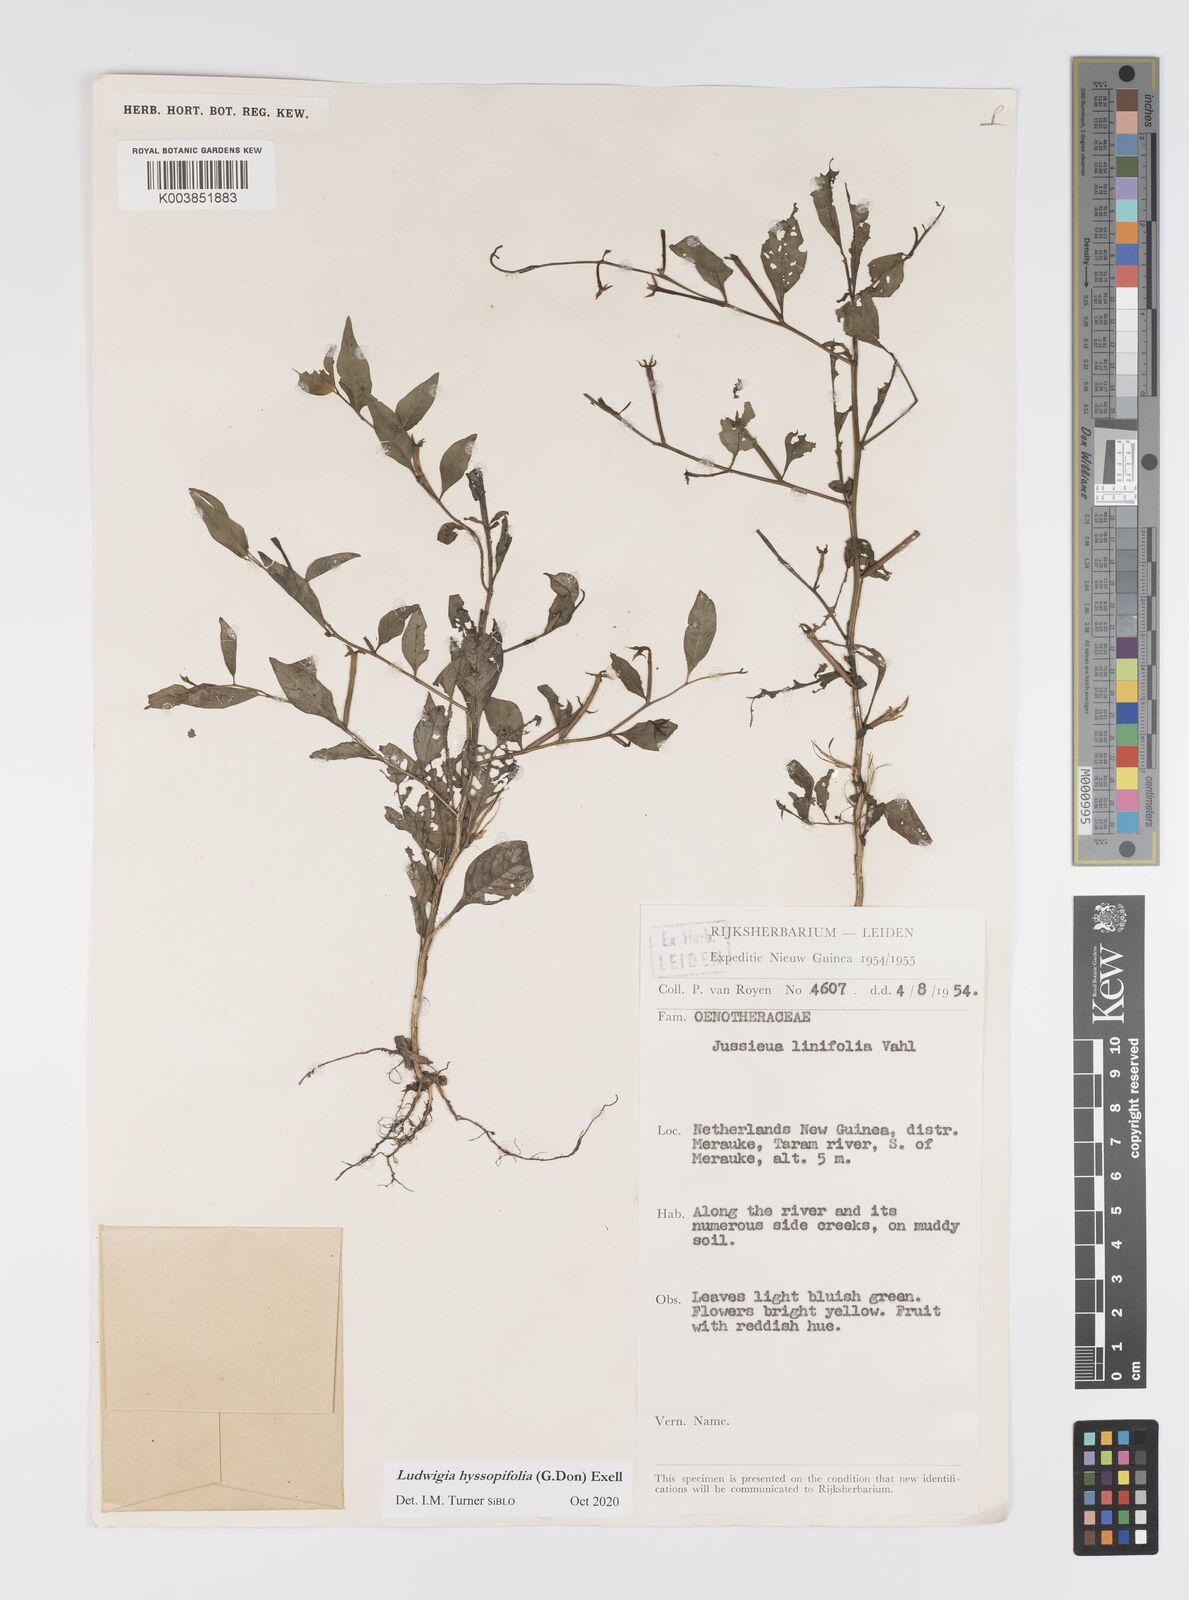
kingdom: Plantae
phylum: Tracheophyta
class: Magnoliopsida
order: Myrtales
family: Onagraceae
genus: Ludwigia
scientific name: Ludwigia hyssopifolia
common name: Linear leaf water primrose
